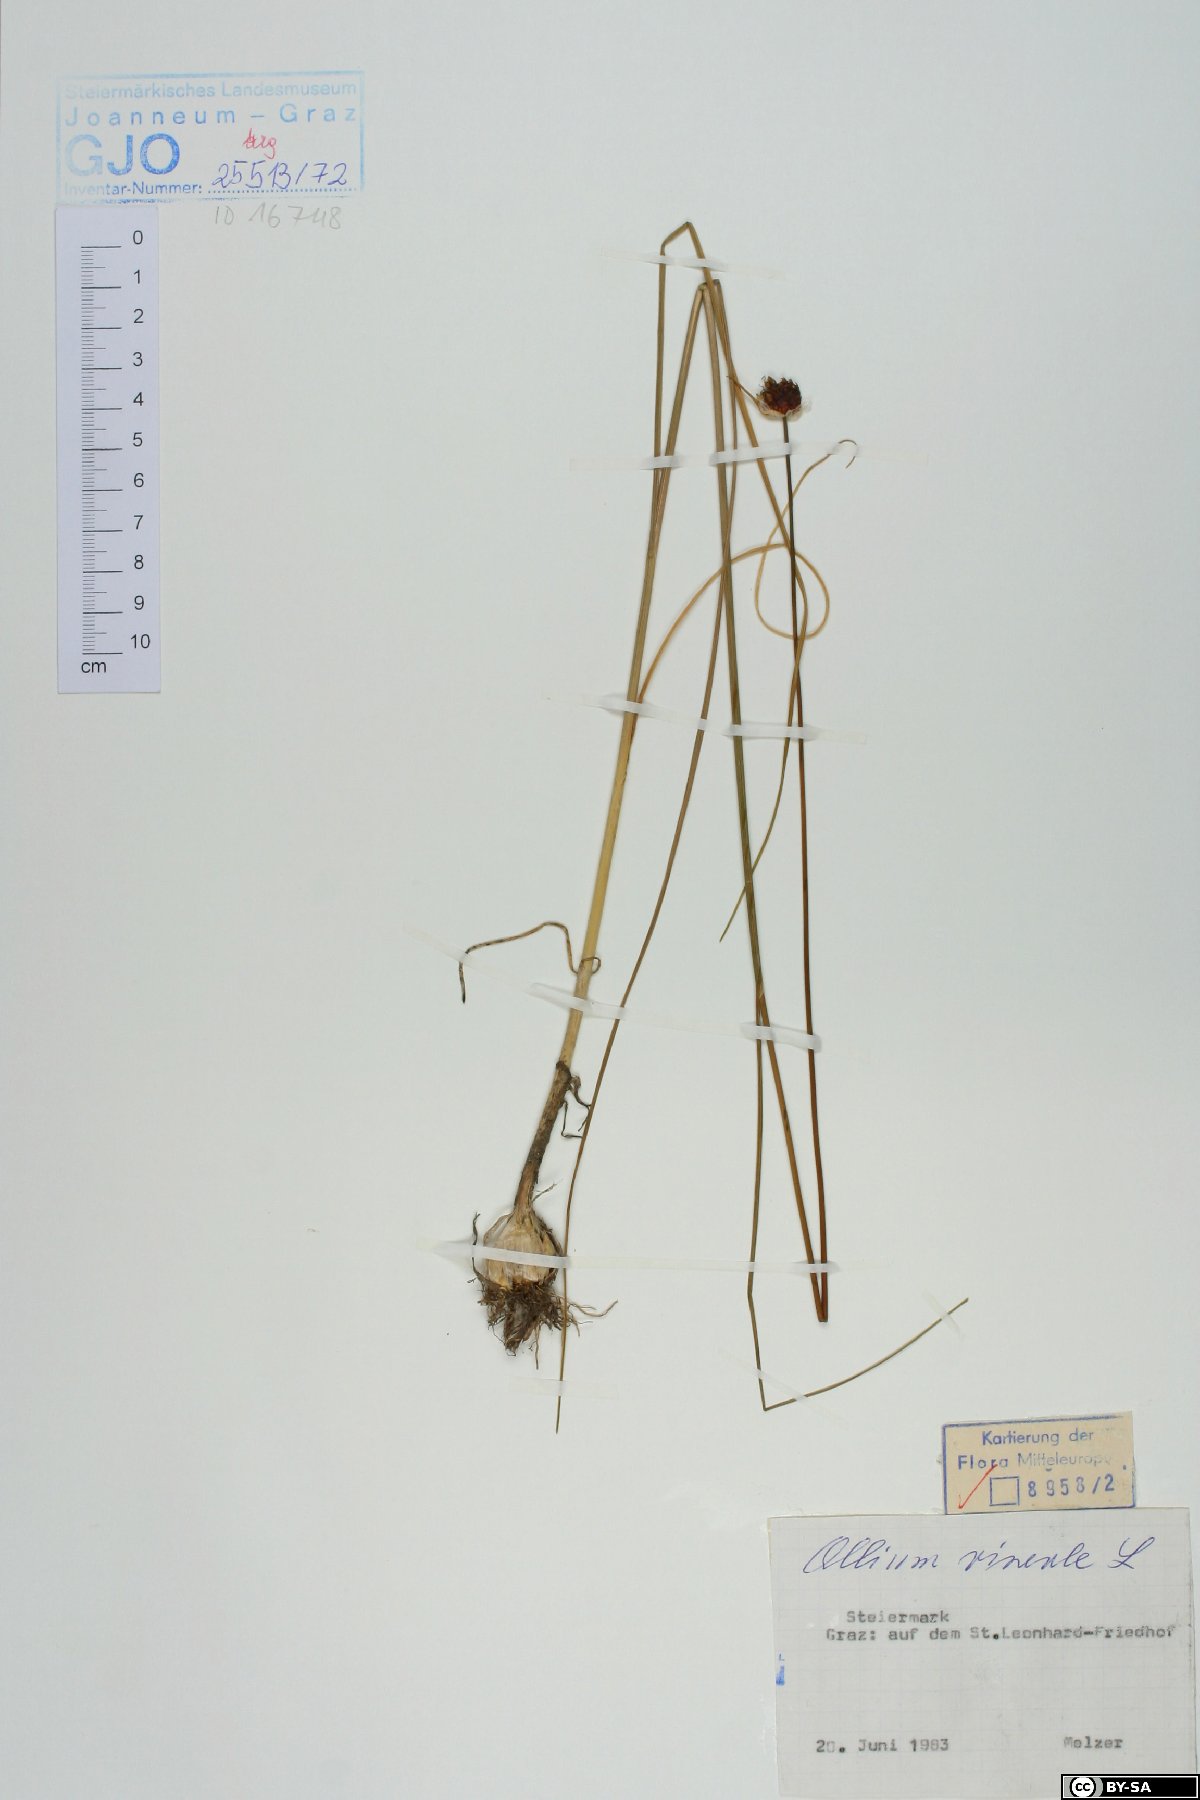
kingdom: Plantae
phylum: Tracheophyta
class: Liliopsida
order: Asparagales
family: Amaryllidaceae
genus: Allium
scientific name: Allium vineale
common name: Crow garlic
